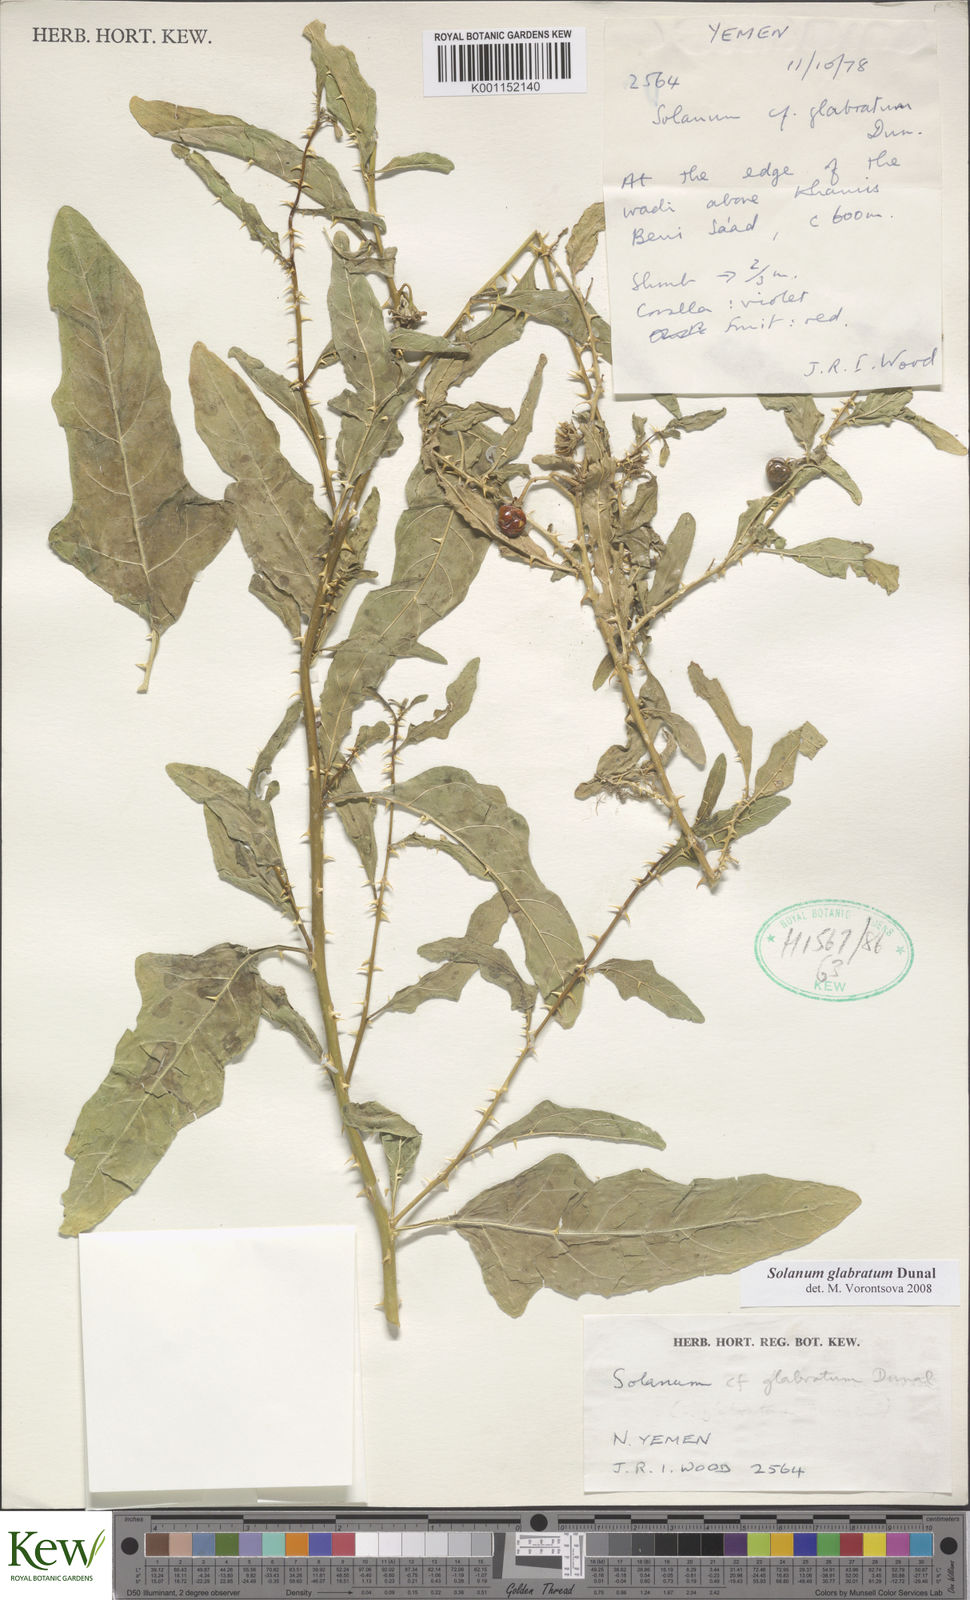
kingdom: Plantae
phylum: Tracheophyta
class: Magnoliopsida
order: Solanales
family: Solanaceae
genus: Solanum
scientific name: Solanum glabratum
